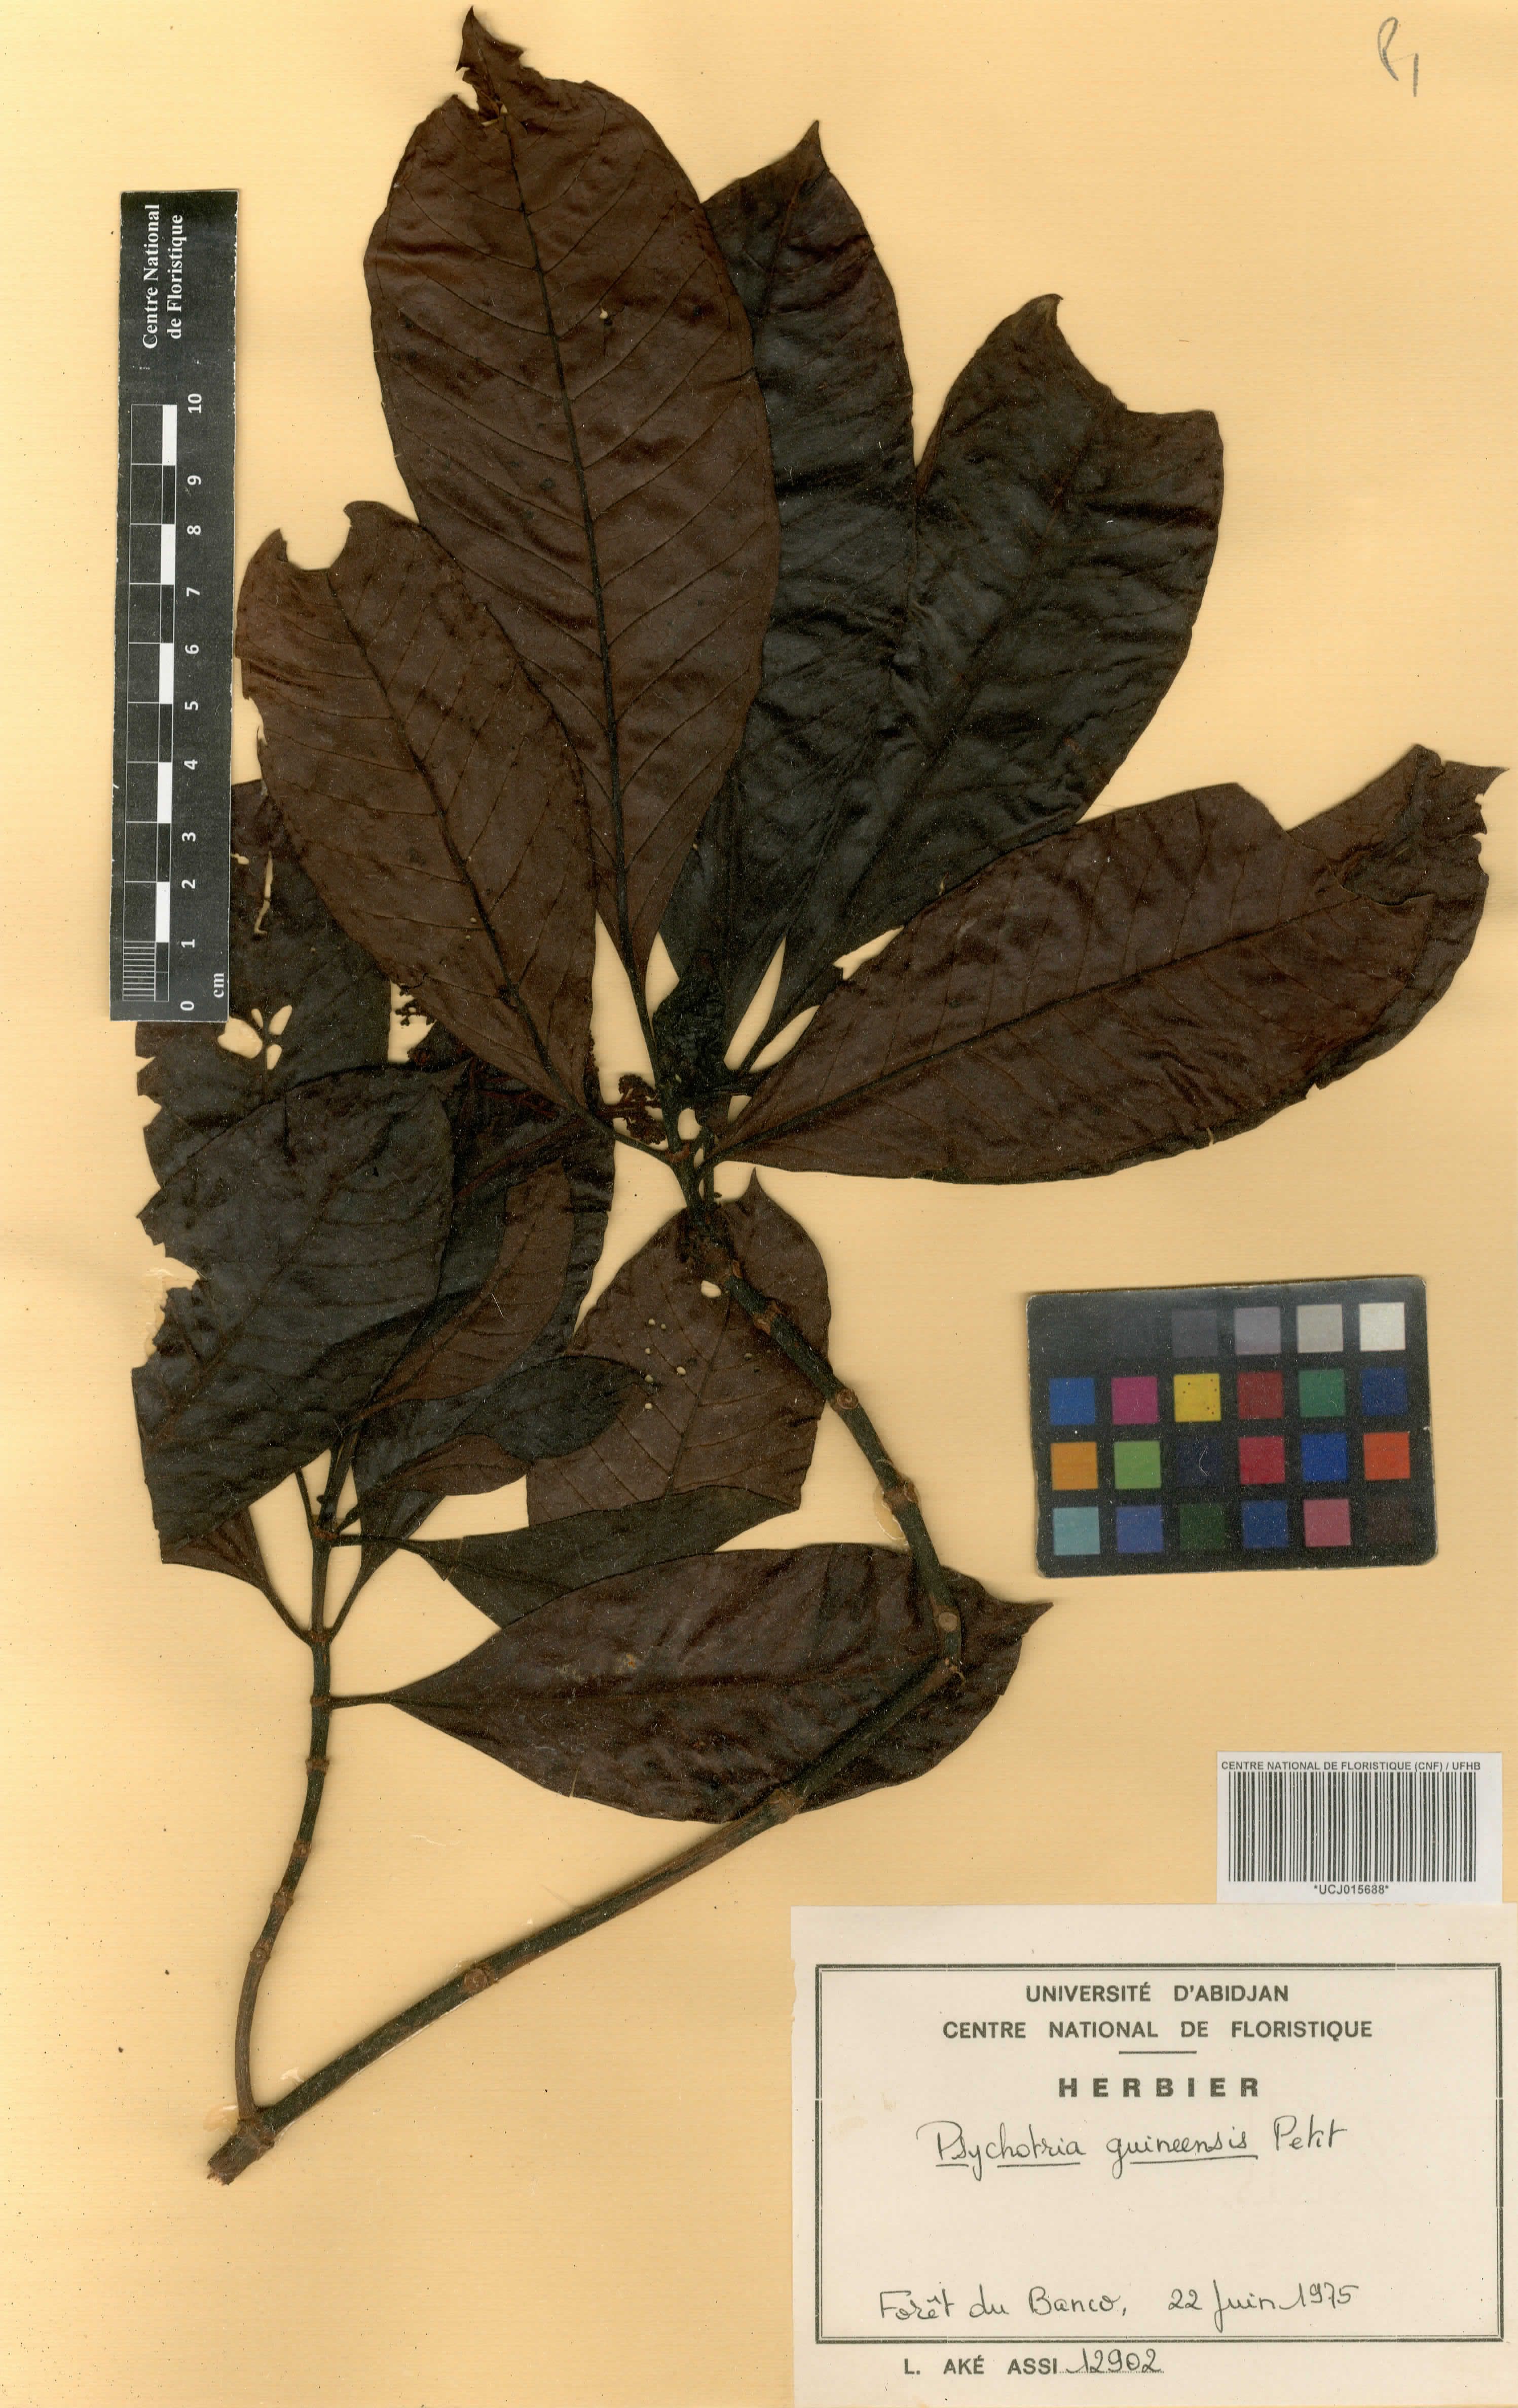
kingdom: Plantae
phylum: Tracheophyta
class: Magnoliopsida
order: Gentianales
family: Rubiaceae
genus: Psychotria
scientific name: Psychotria guineensis
